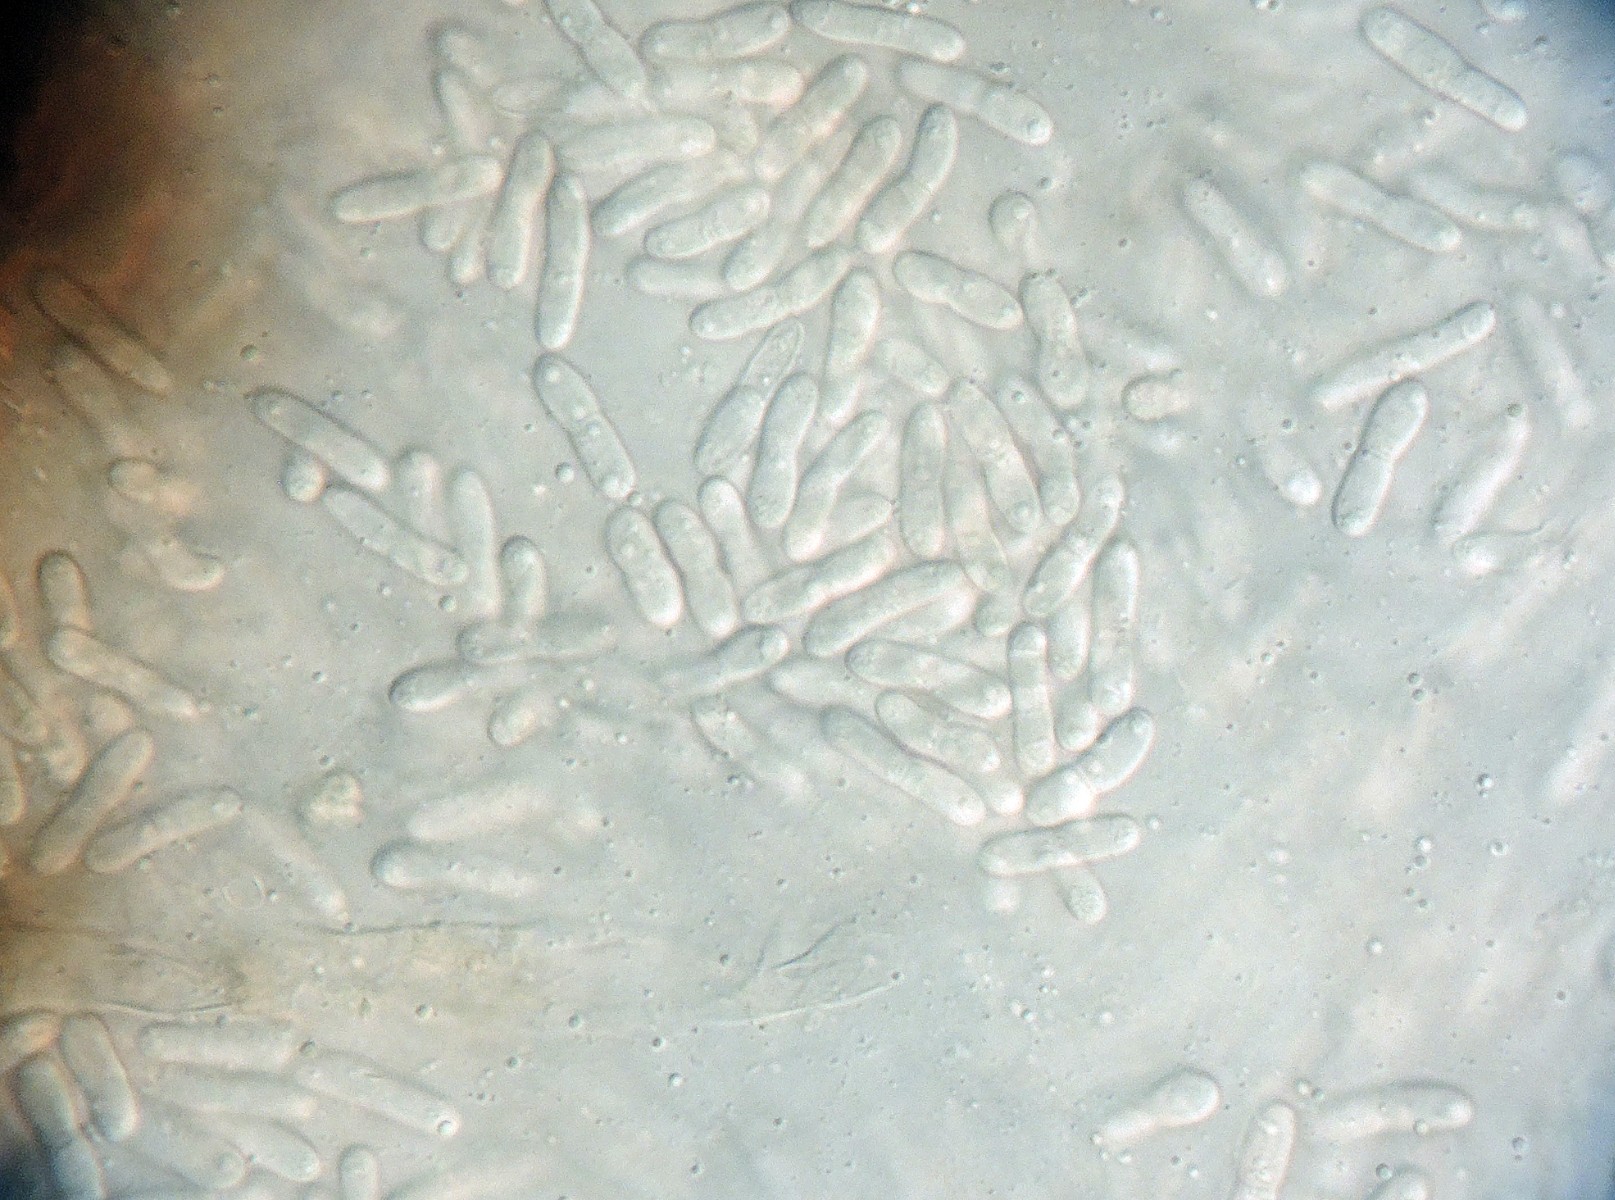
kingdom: Fungi
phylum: Ascomycota
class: Dothideomycetes
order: Pleosporales
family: Didymellaceae
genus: Didymella
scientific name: Didymella fabae
